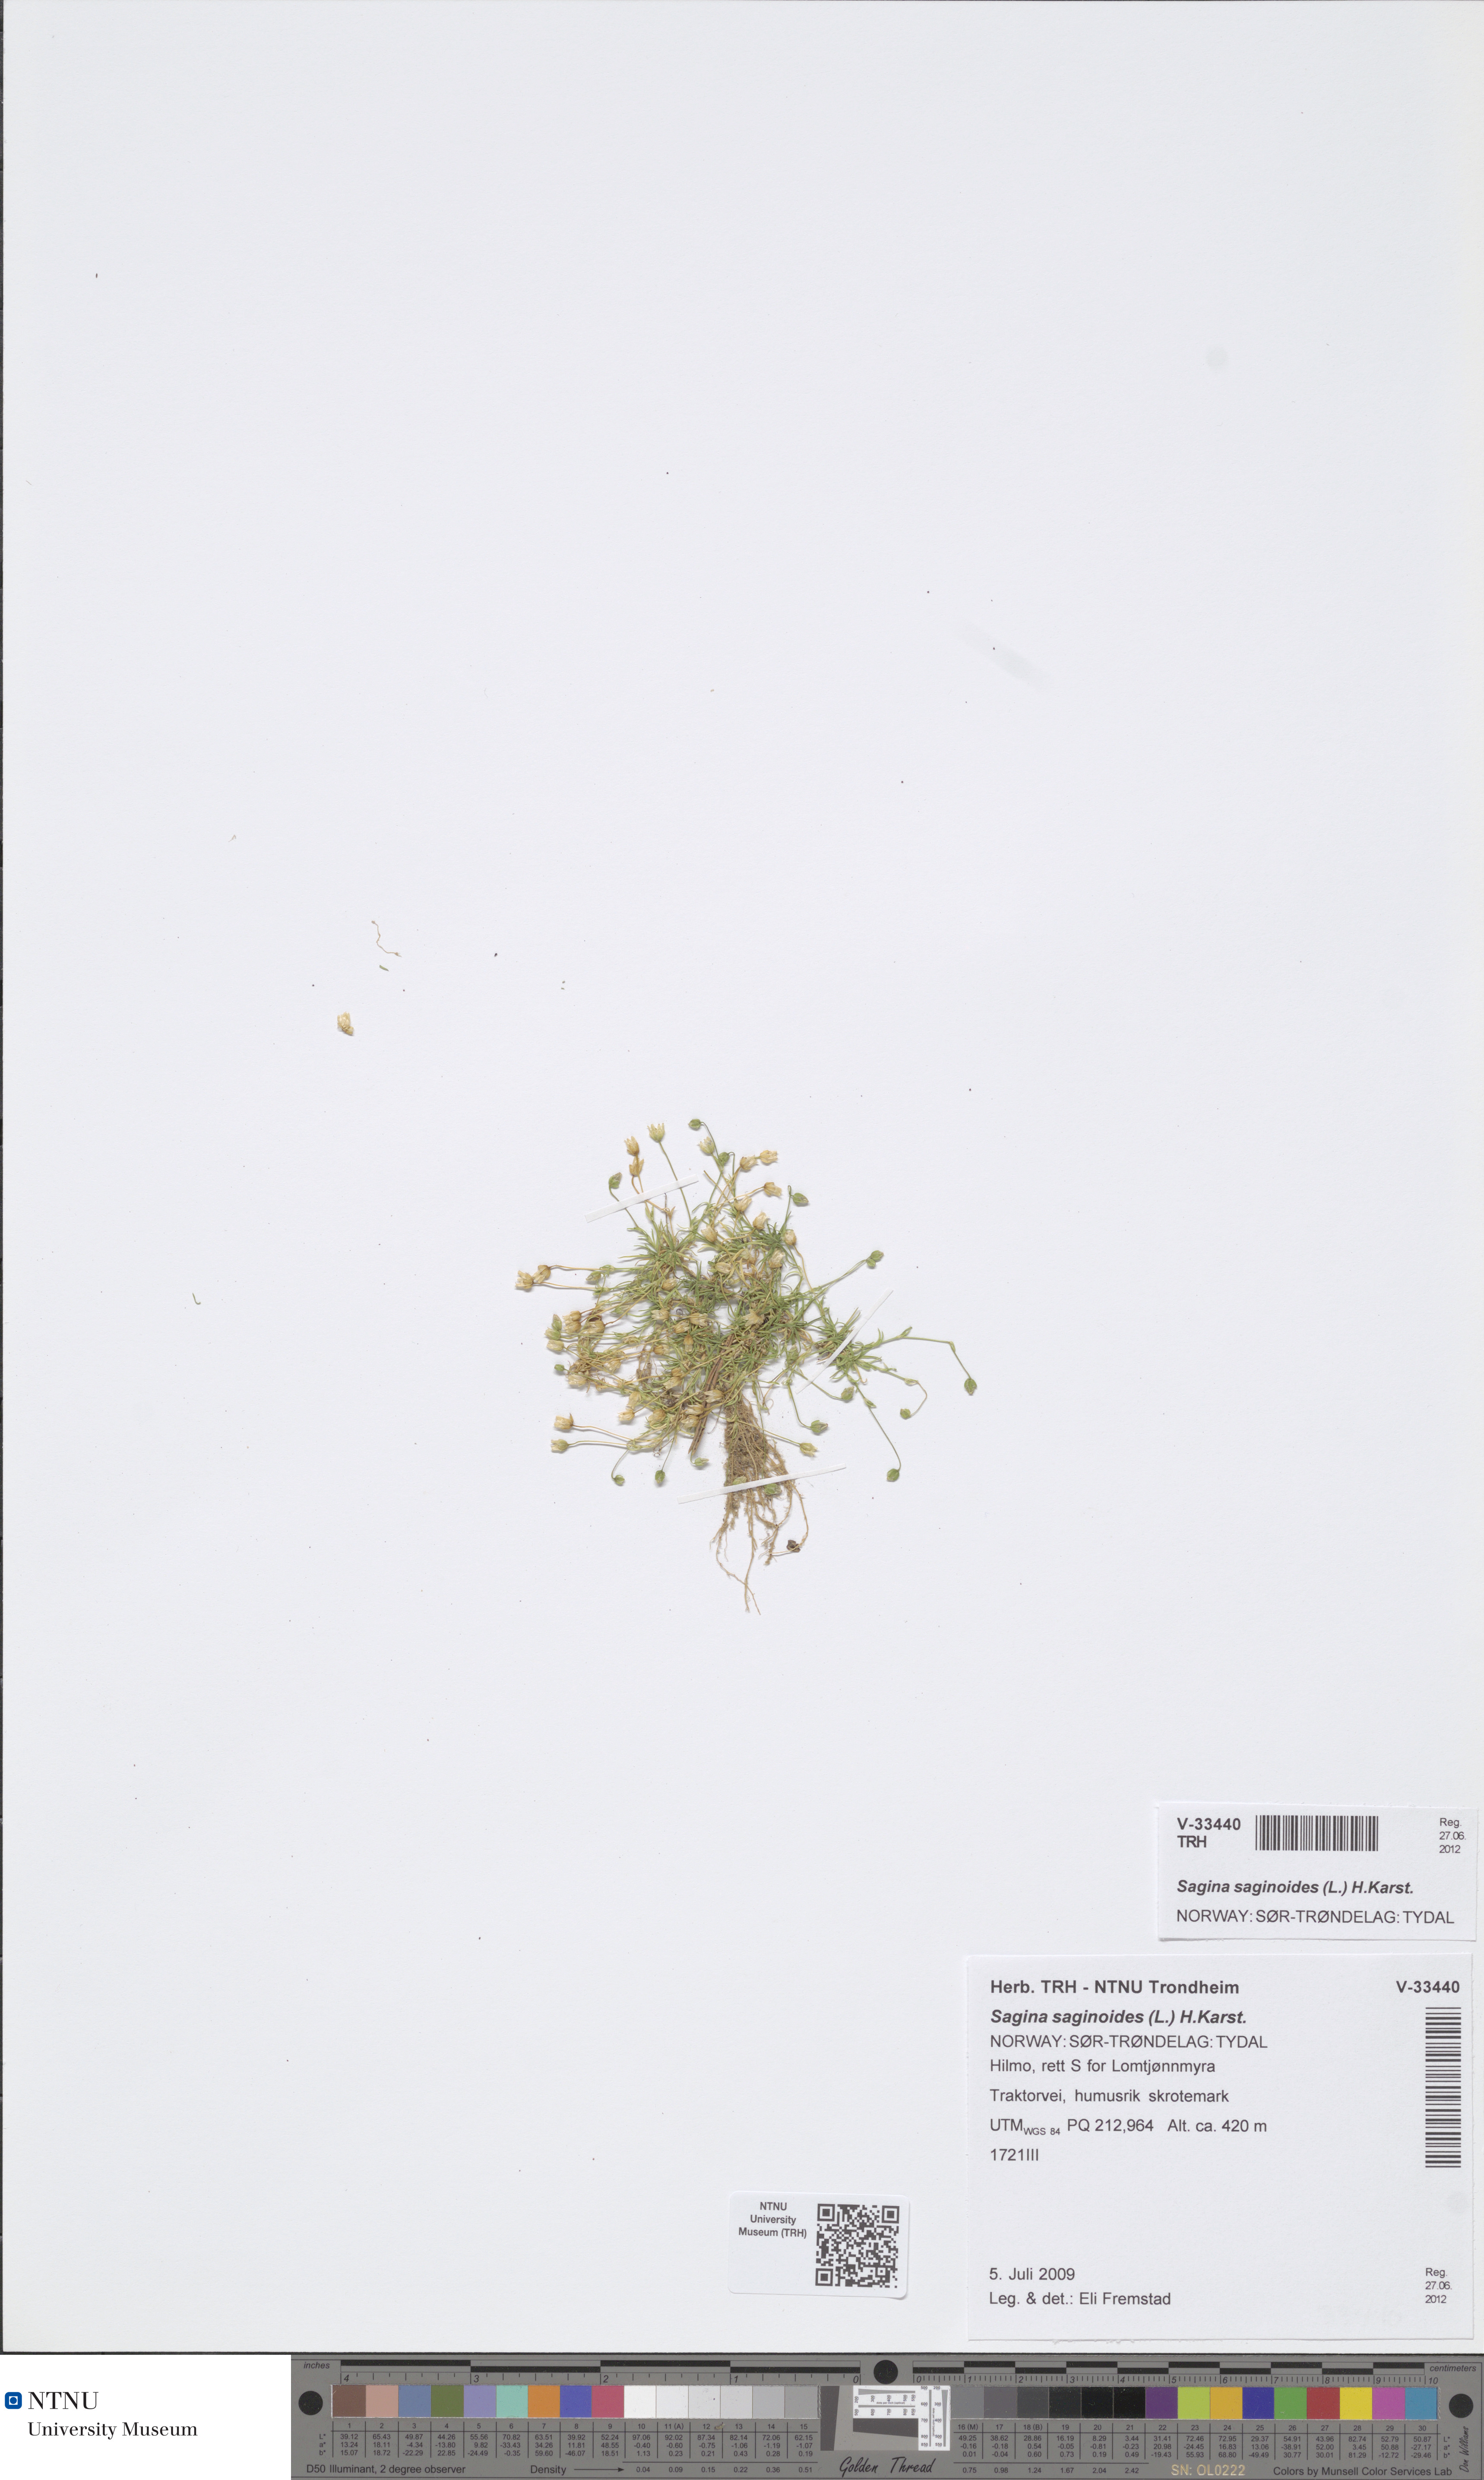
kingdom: Plantae
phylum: Tracheophyta
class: Magnoliopsida
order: Caryophyllales
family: Caryophyllaceae
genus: Sagina
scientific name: Sagina saginoides
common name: Alpine pearlwort
